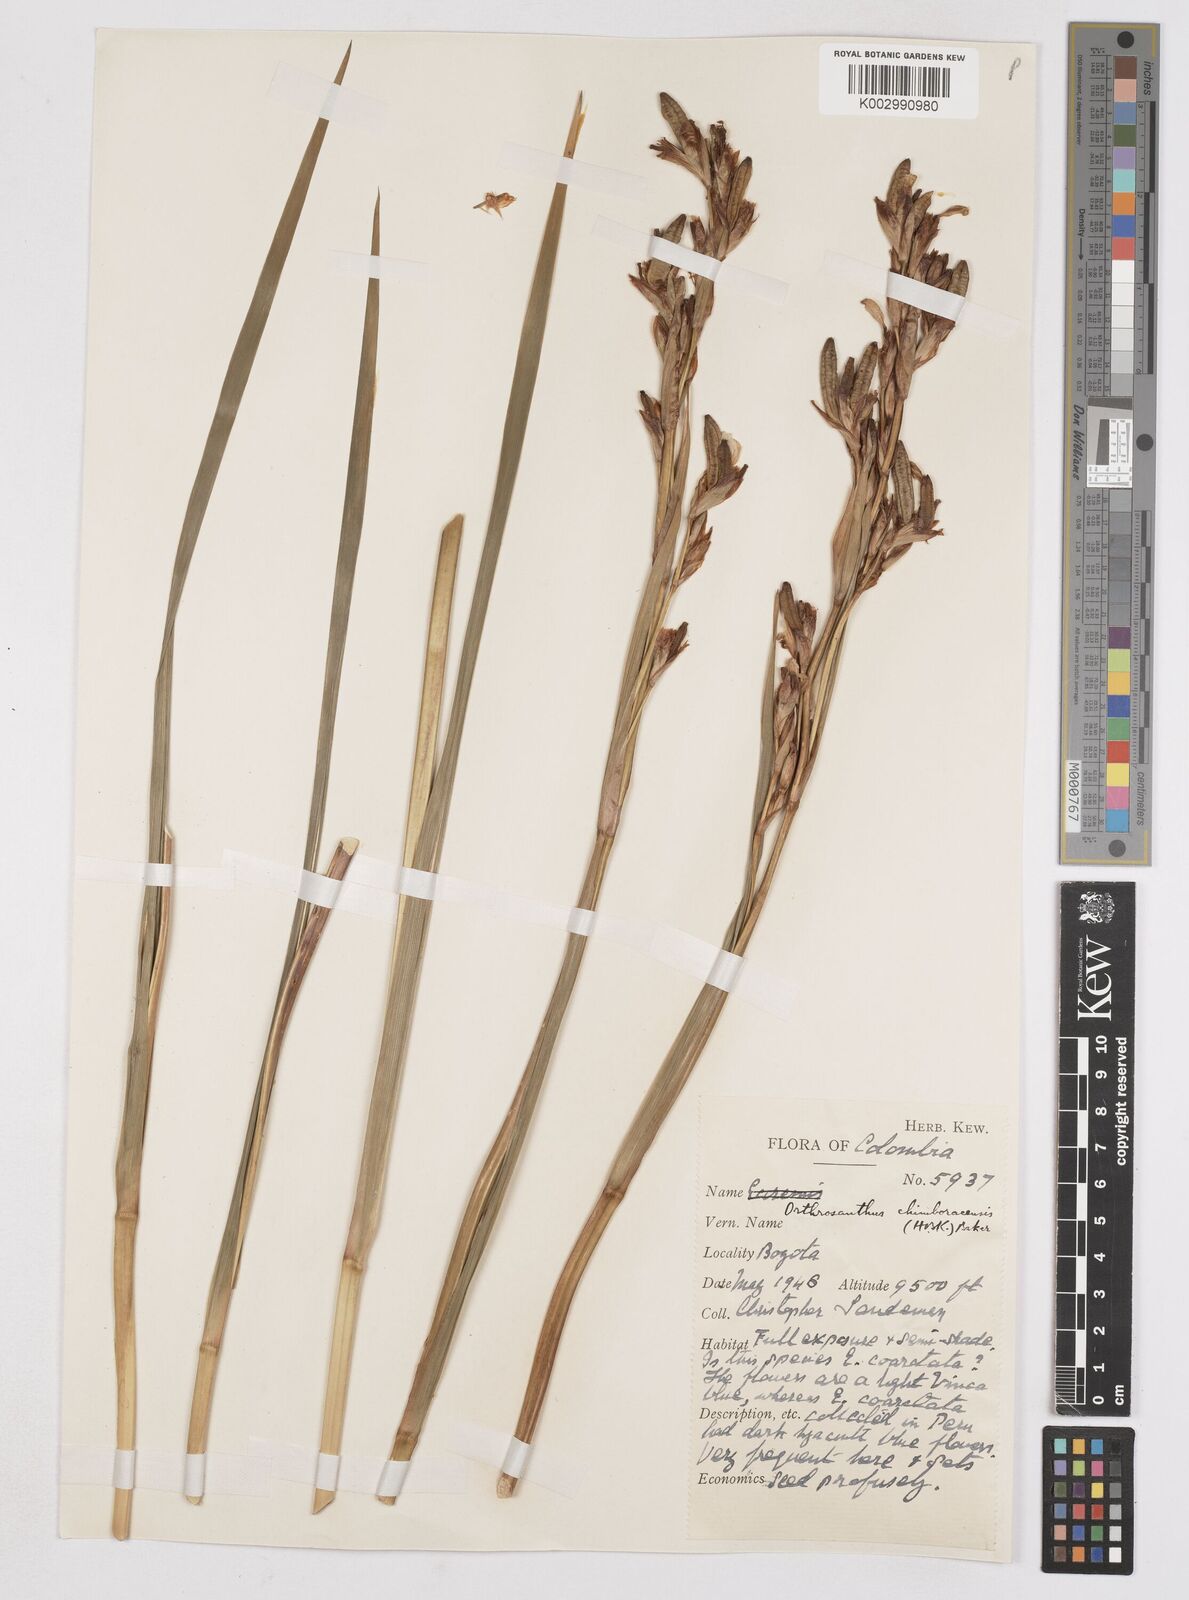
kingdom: Plantae
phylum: Tracheophyta
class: Liliopsida
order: Asparagales
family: Iridaceae
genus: Orthrosanthus
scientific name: Orthrosanthus chimboracensis
